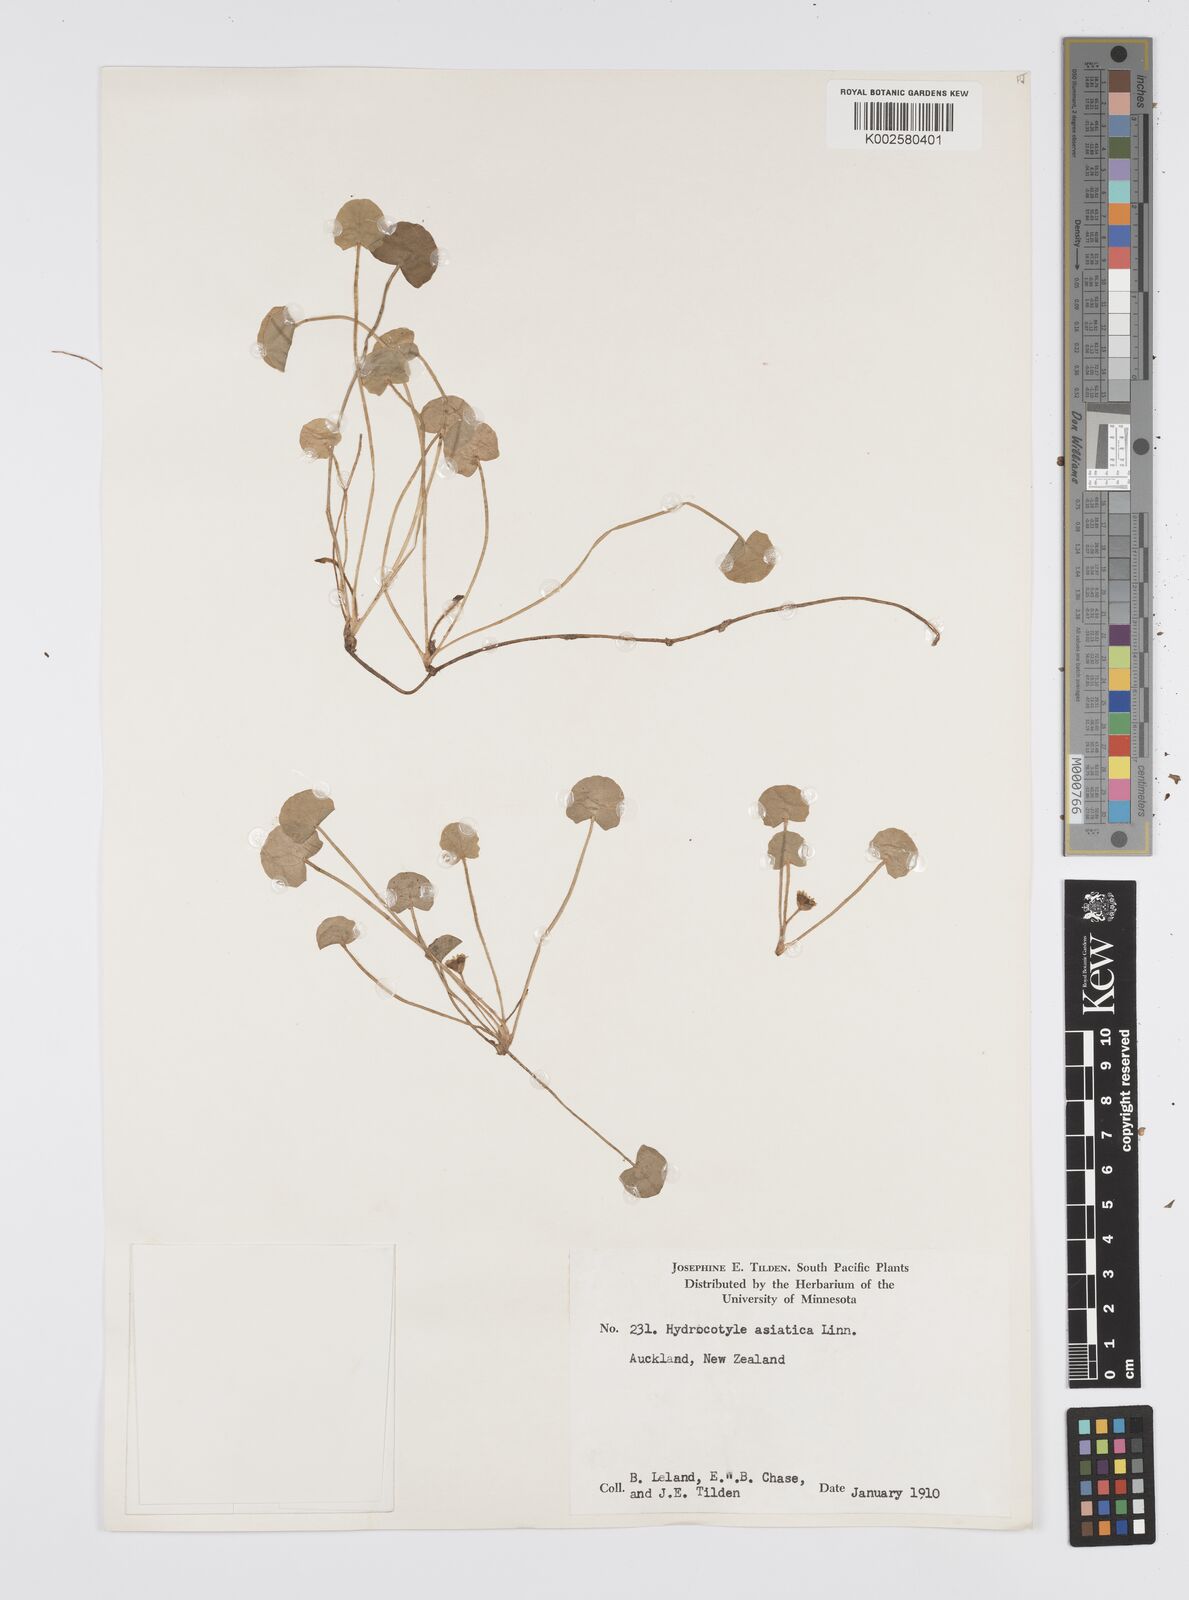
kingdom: Plantae
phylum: Tracheophyta
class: Magnoliopsida
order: Apiales
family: Apiaceae
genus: Centella
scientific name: Centella uniflora
